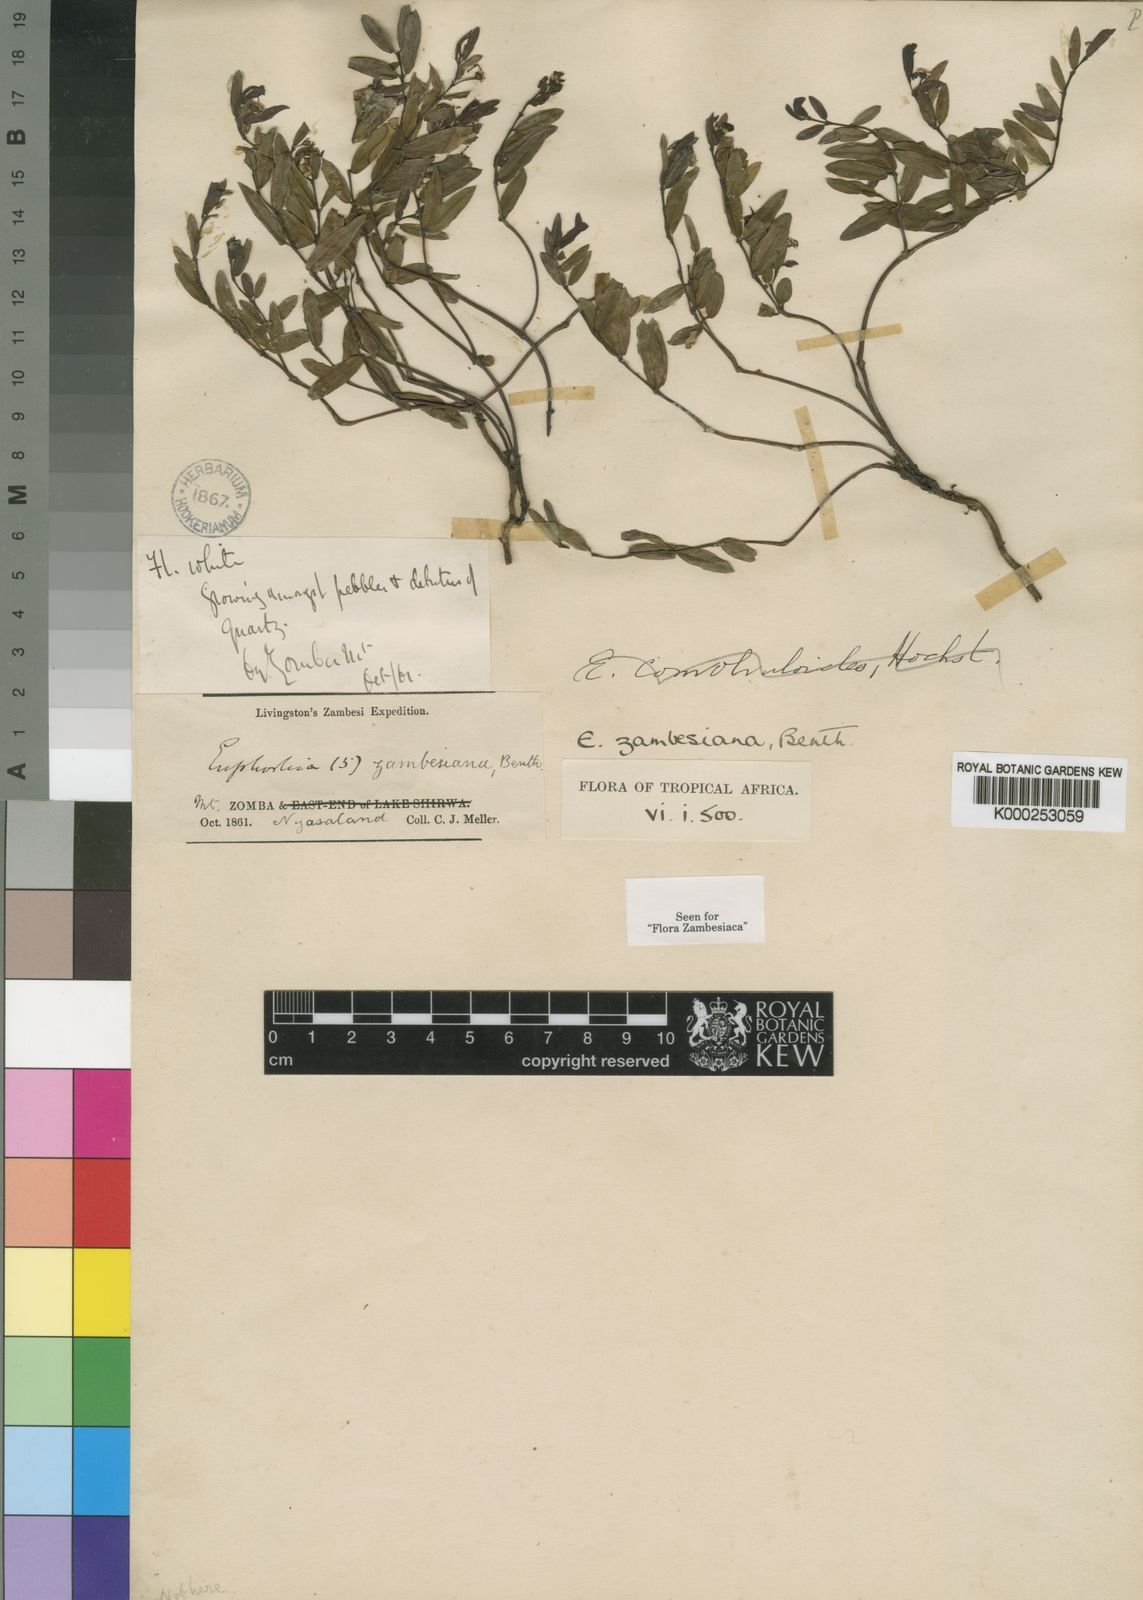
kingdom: Plantae
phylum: Tracheophyta
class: Magnoliopsida
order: Malpighiales
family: Euphorbiaceae
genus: Euphorbia
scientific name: Euphorbia zambesiana
